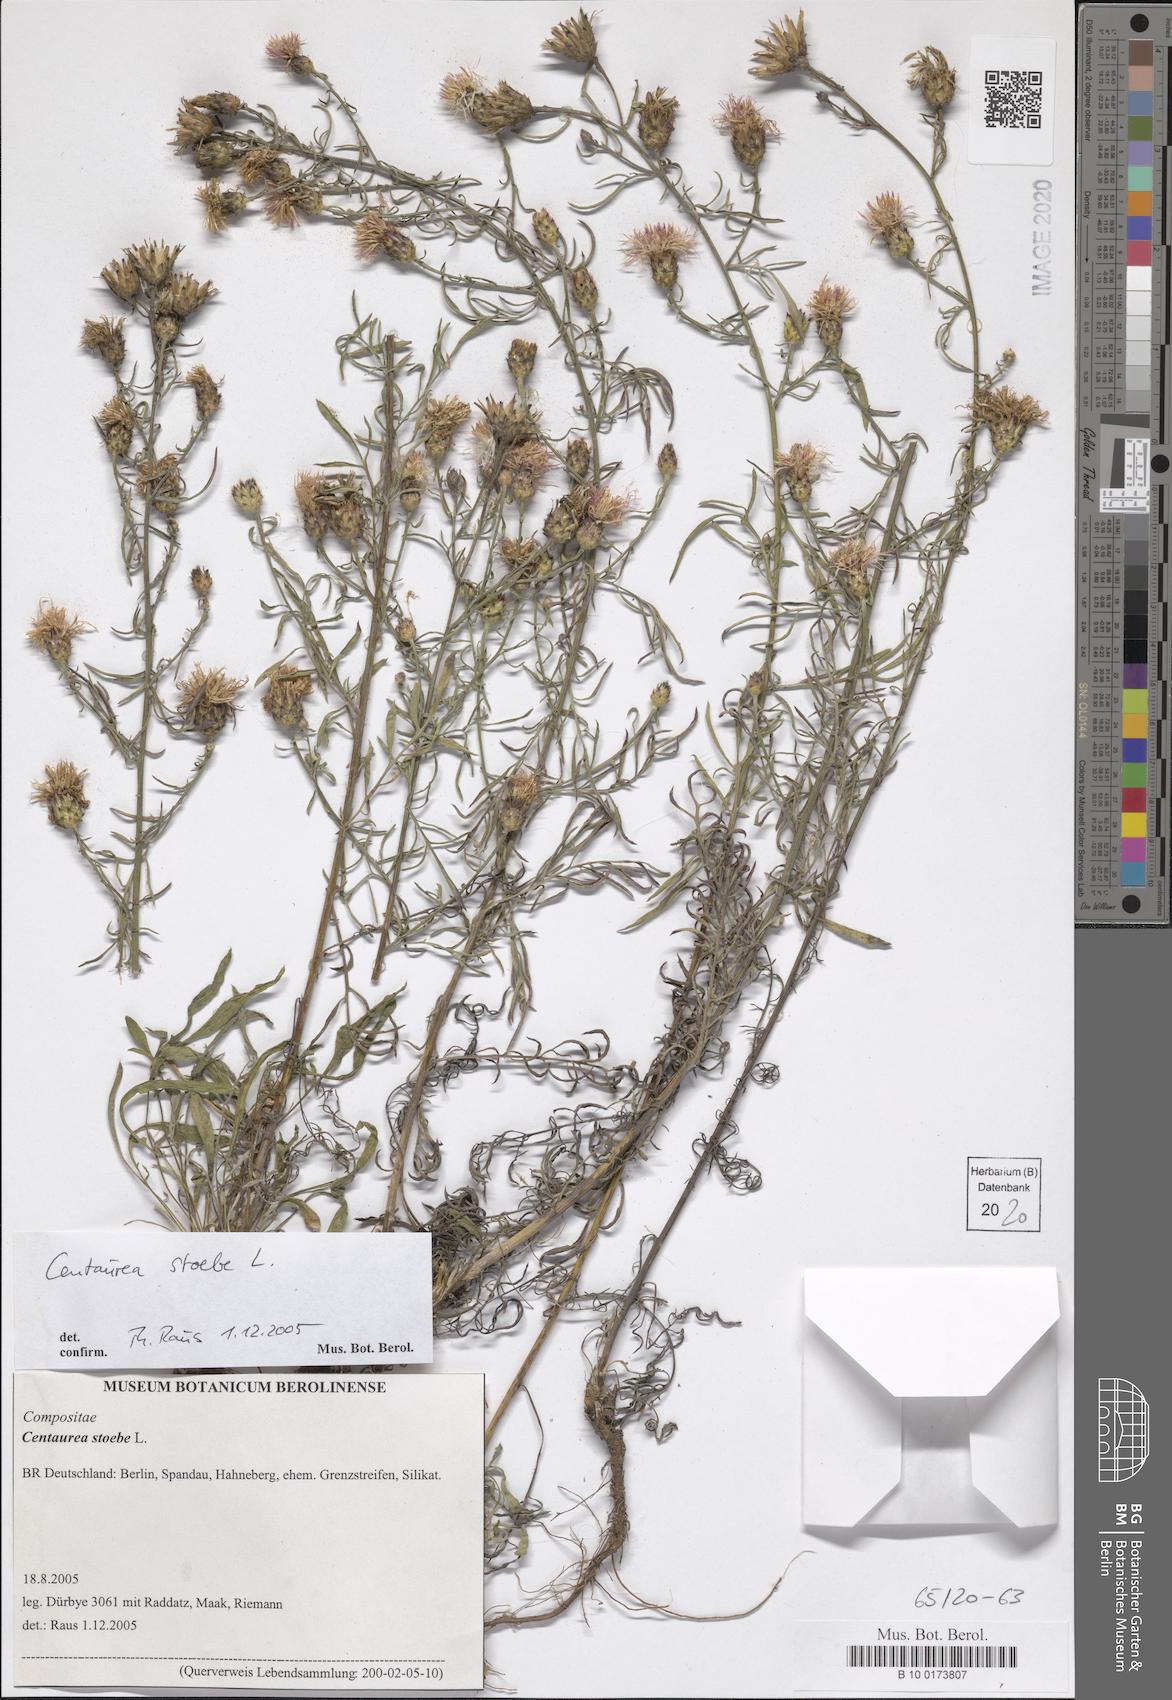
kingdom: Plantae
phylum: Tracheophyta
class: Magnoliopsida
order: Asterales
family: Asteraceae
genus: Centaurea
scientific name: Centaurea stoebe
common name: Spotted knapweed
